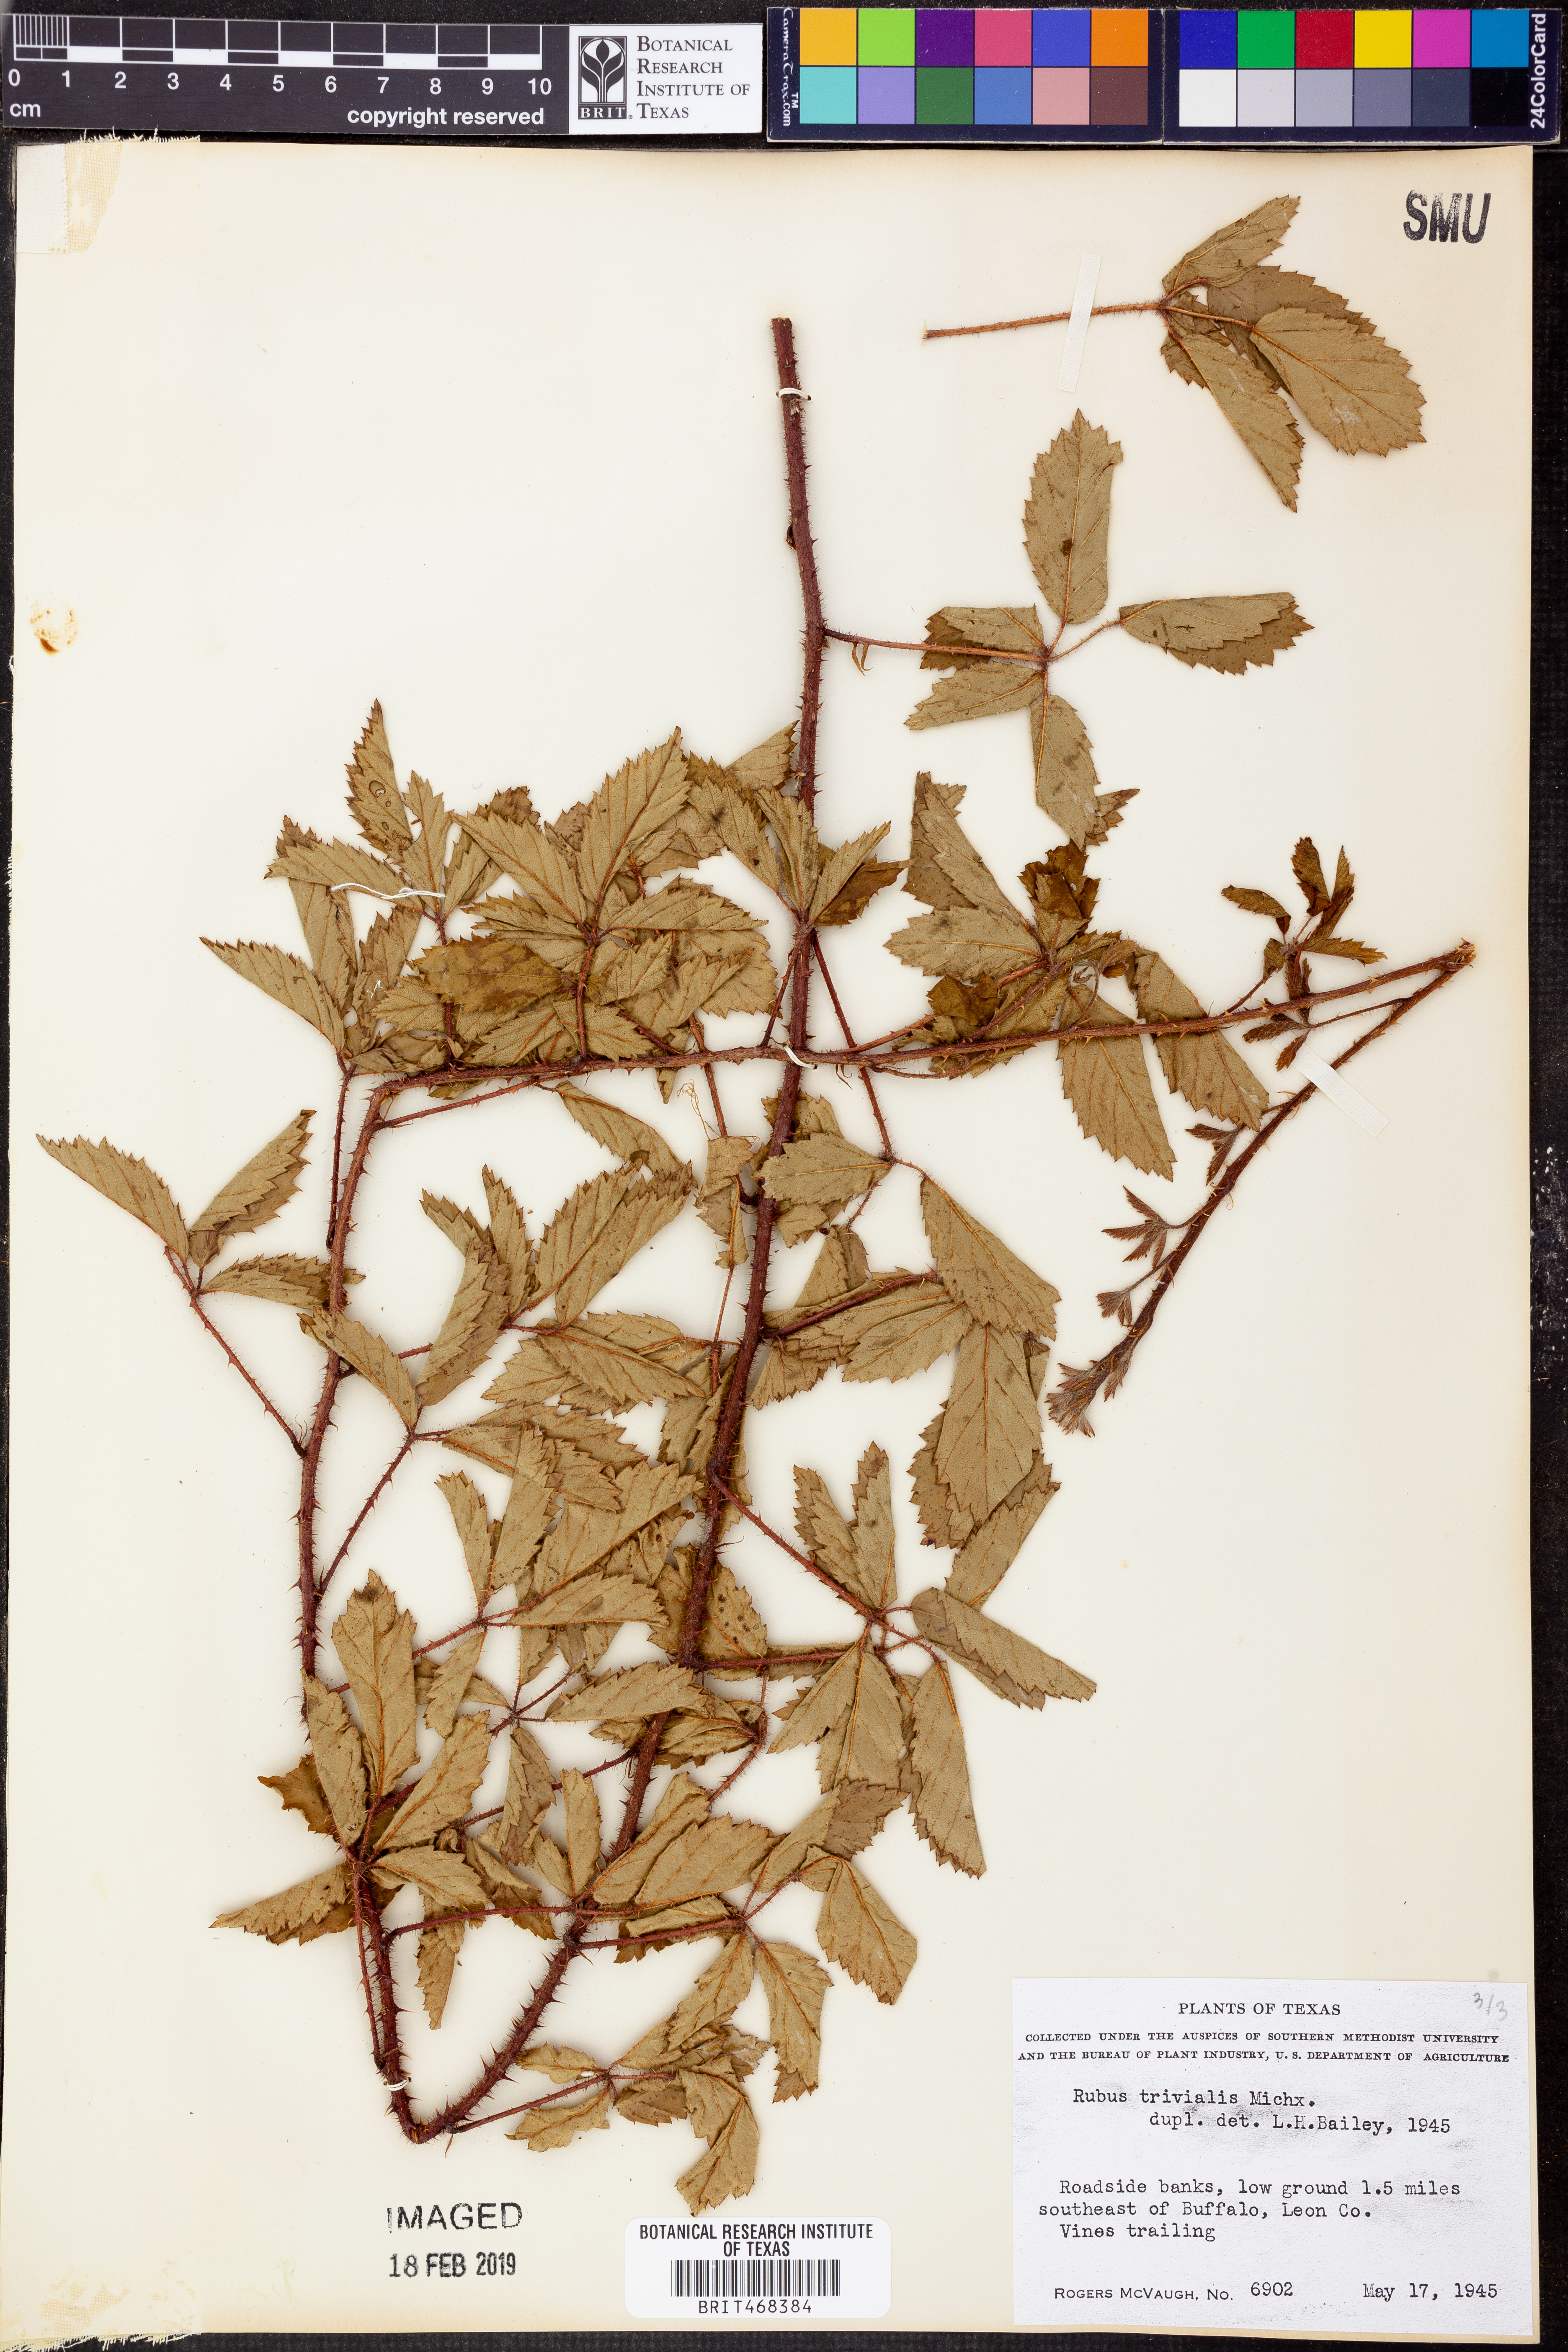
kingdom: Plantae
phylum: Tracheophyta
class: Magnoliopsida
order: Rosales
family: Rosaceae
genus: Rubus
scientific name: Rubus trivialis
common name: Southern dewberry
